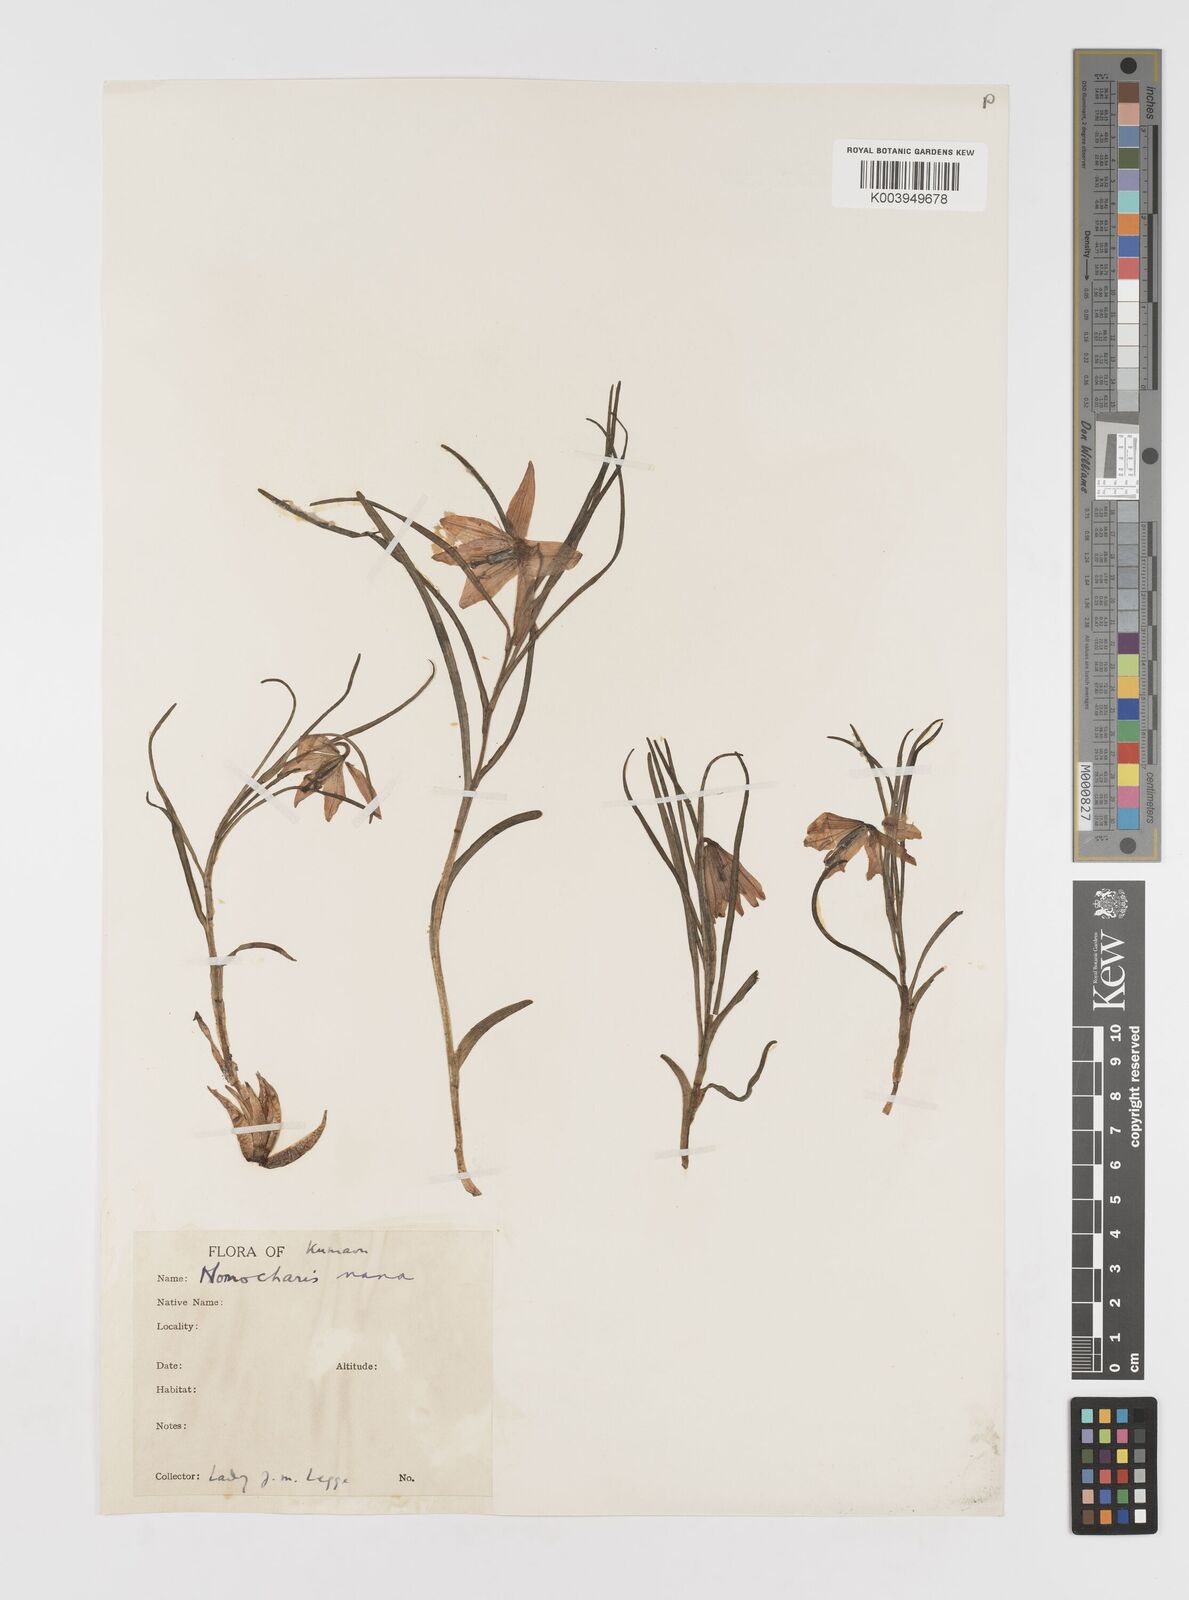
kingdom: Plantae
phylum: Tracheophyta
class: Liliopsida
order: Liliales
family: Liliaceae
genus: Lilium
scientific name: Lilium nanum
